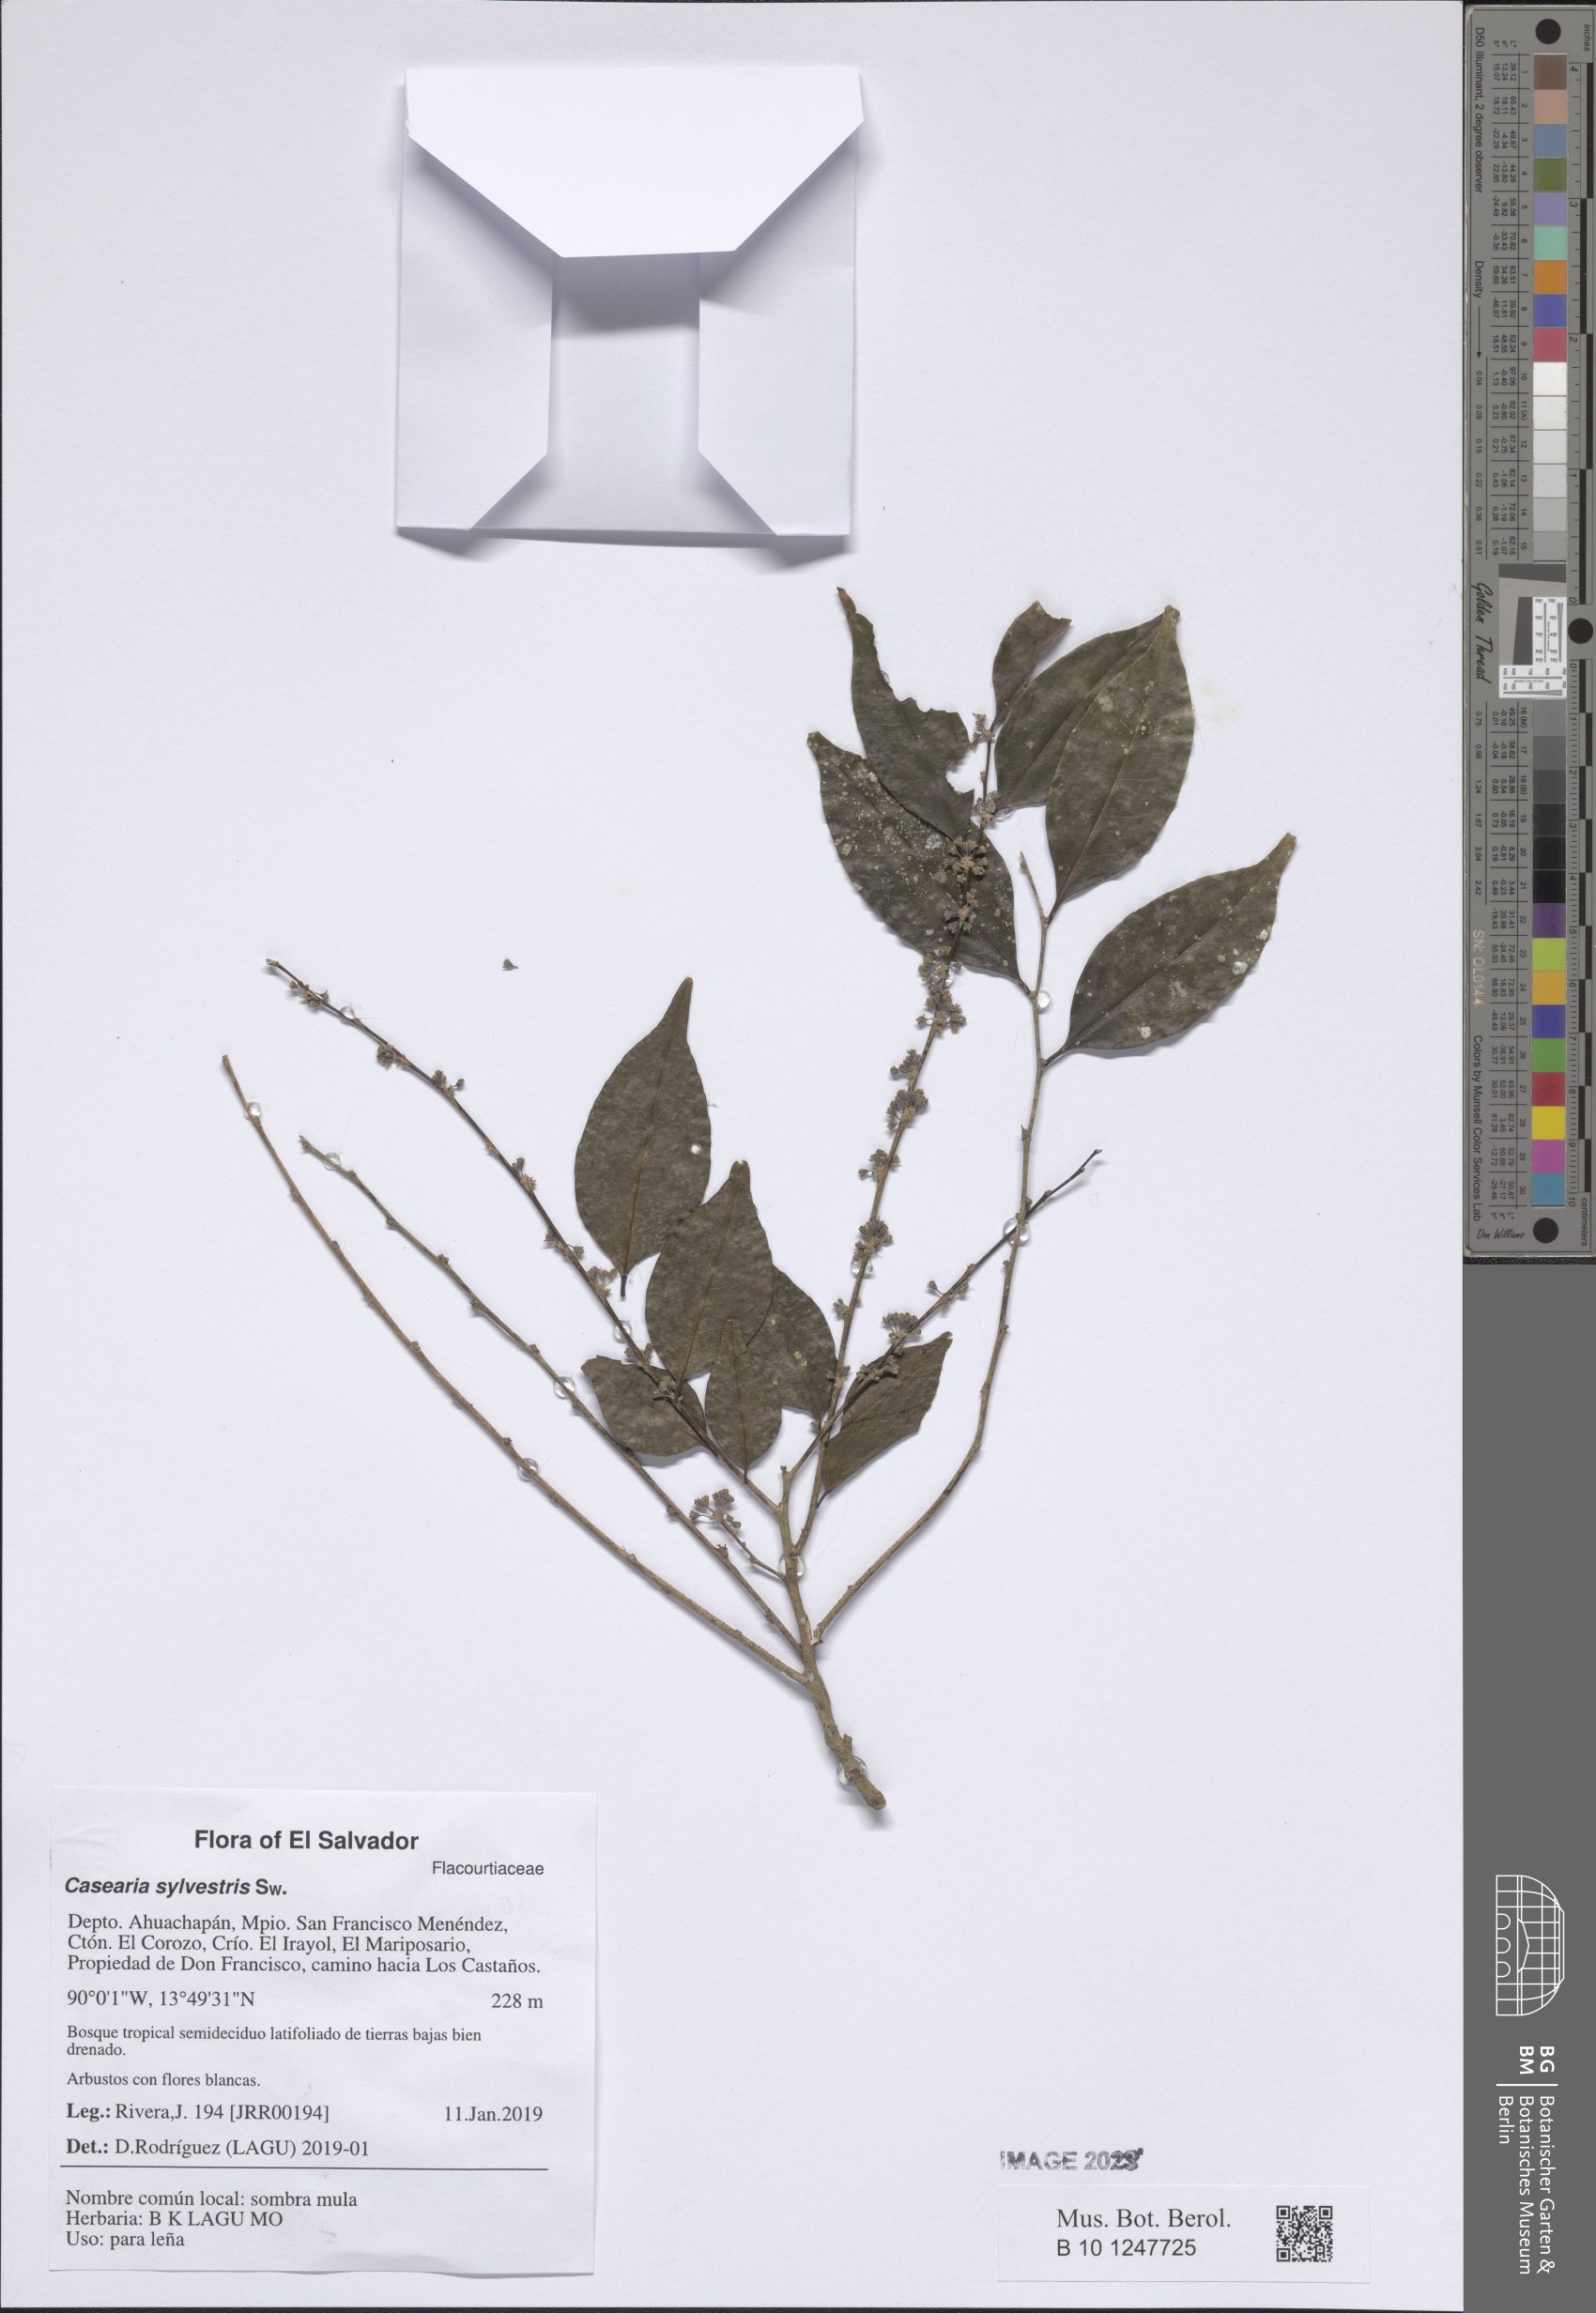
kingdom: Plantae
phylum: Tracheophyta
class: Magnoliopsida
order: Malpighiales
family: Salicaceae
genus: Casearia
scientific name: Casearia sylvestris
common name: Wild sage
